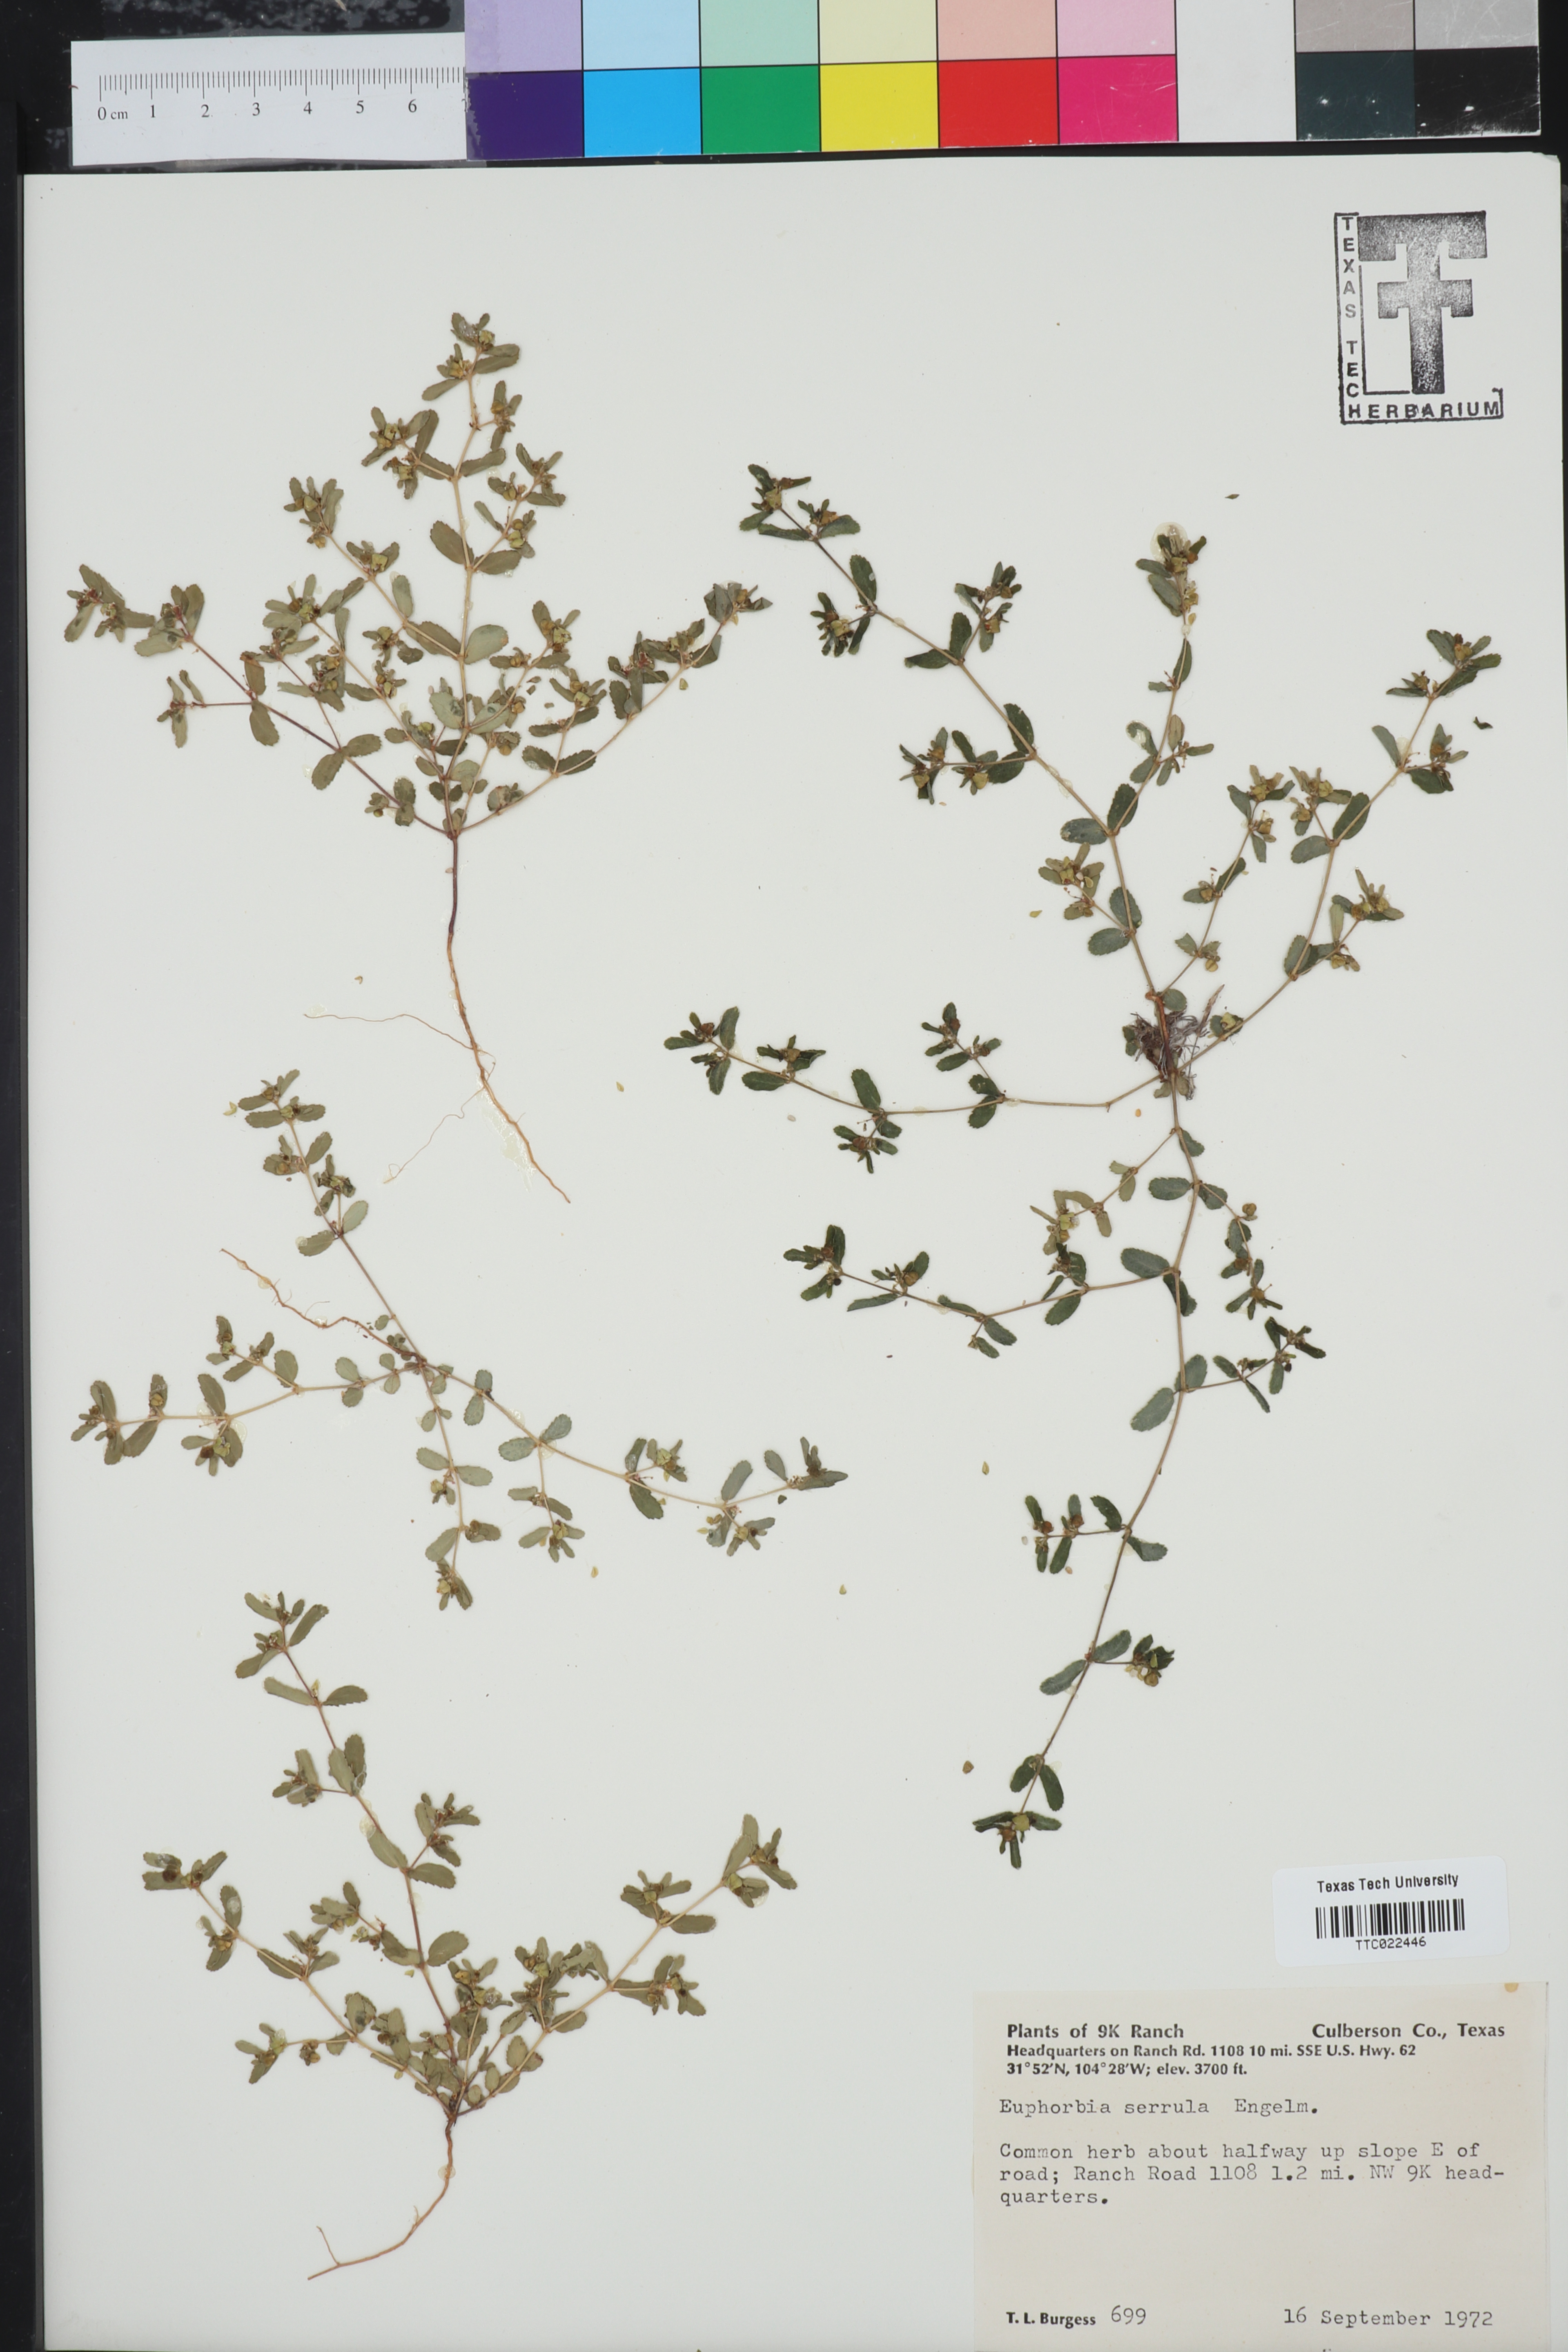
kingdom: Plantae
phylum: Tracheophyta
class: Magnoliopsida
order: Malpighiales
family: Euphorbiaceae
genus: Euphorbia
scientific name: Euphorbia serrula
